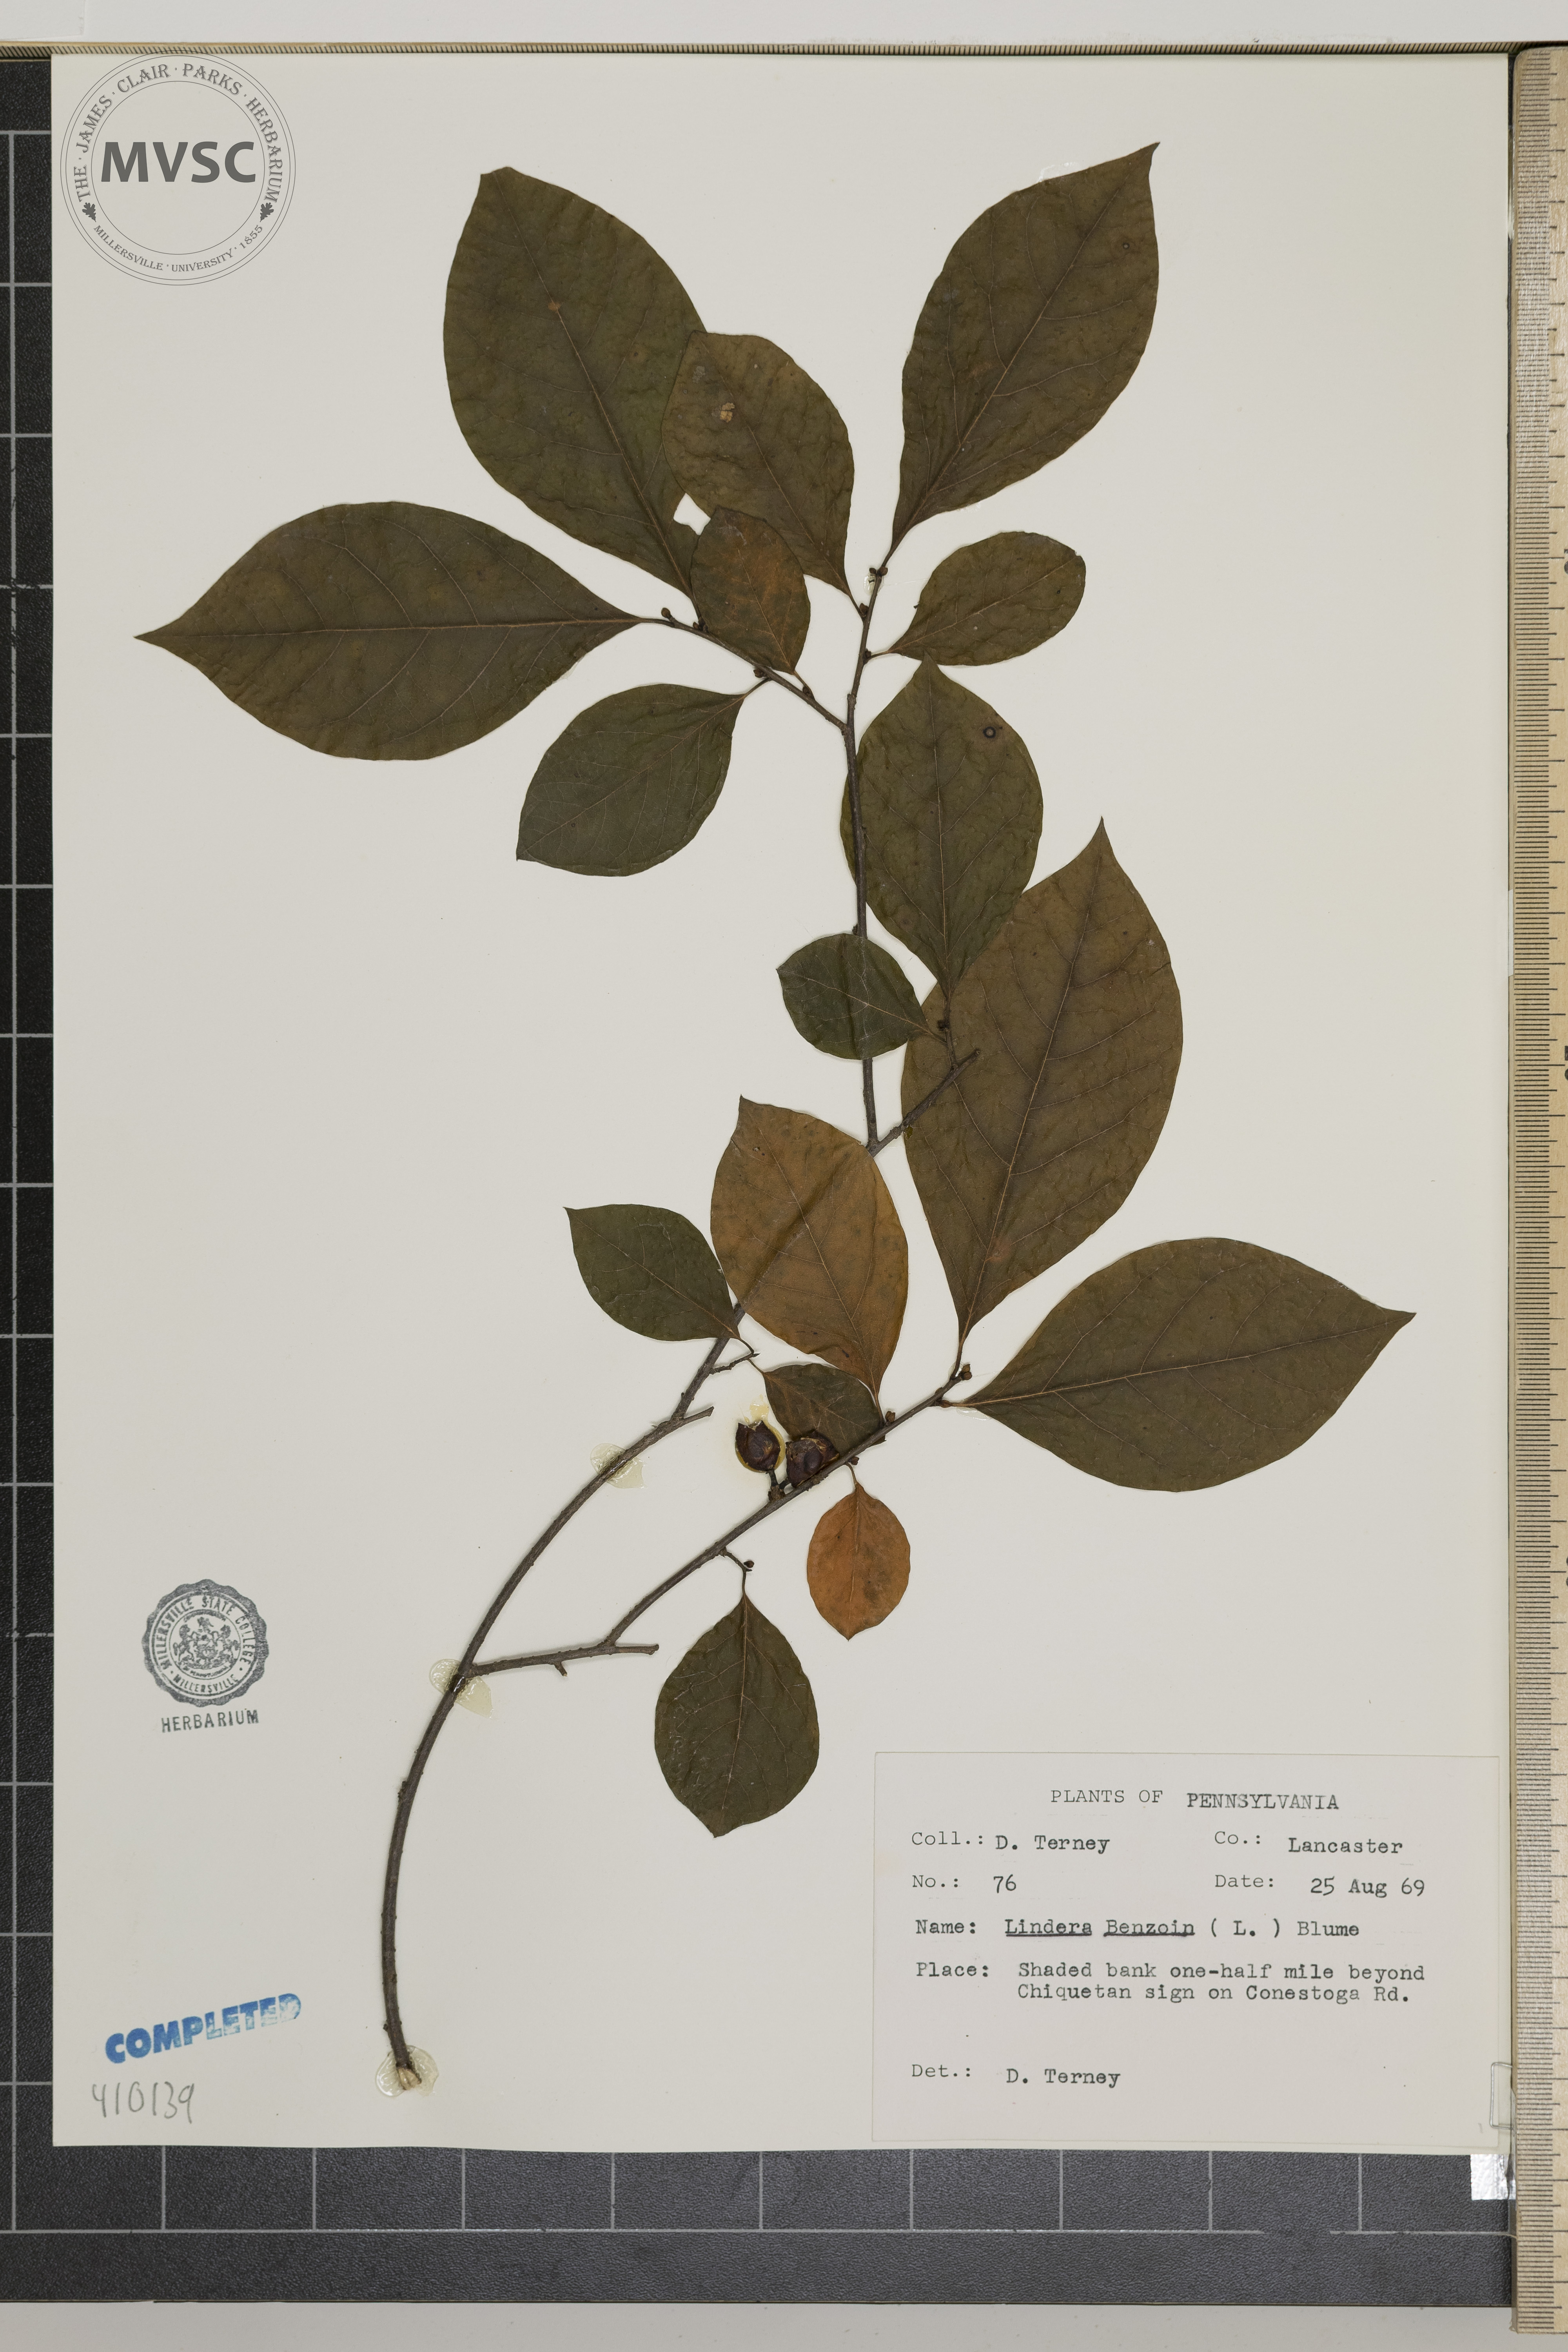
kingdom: Plantae
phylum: Tracheophyta
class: Magnoliopsida
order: Laurales
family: Lauraceae
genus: Lindera
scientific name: Lindera benzoin
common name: Spicebush
